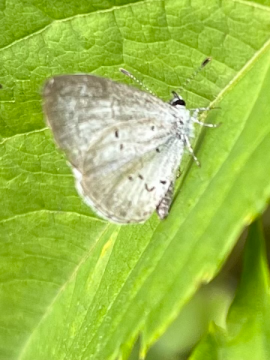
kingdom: Animalia
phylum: Arthropoda
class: Insecta
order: Lepidoptera
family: Lycaenidae
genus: Celastrina
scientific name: Celastrina lucia
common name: Northern Spring Azure
